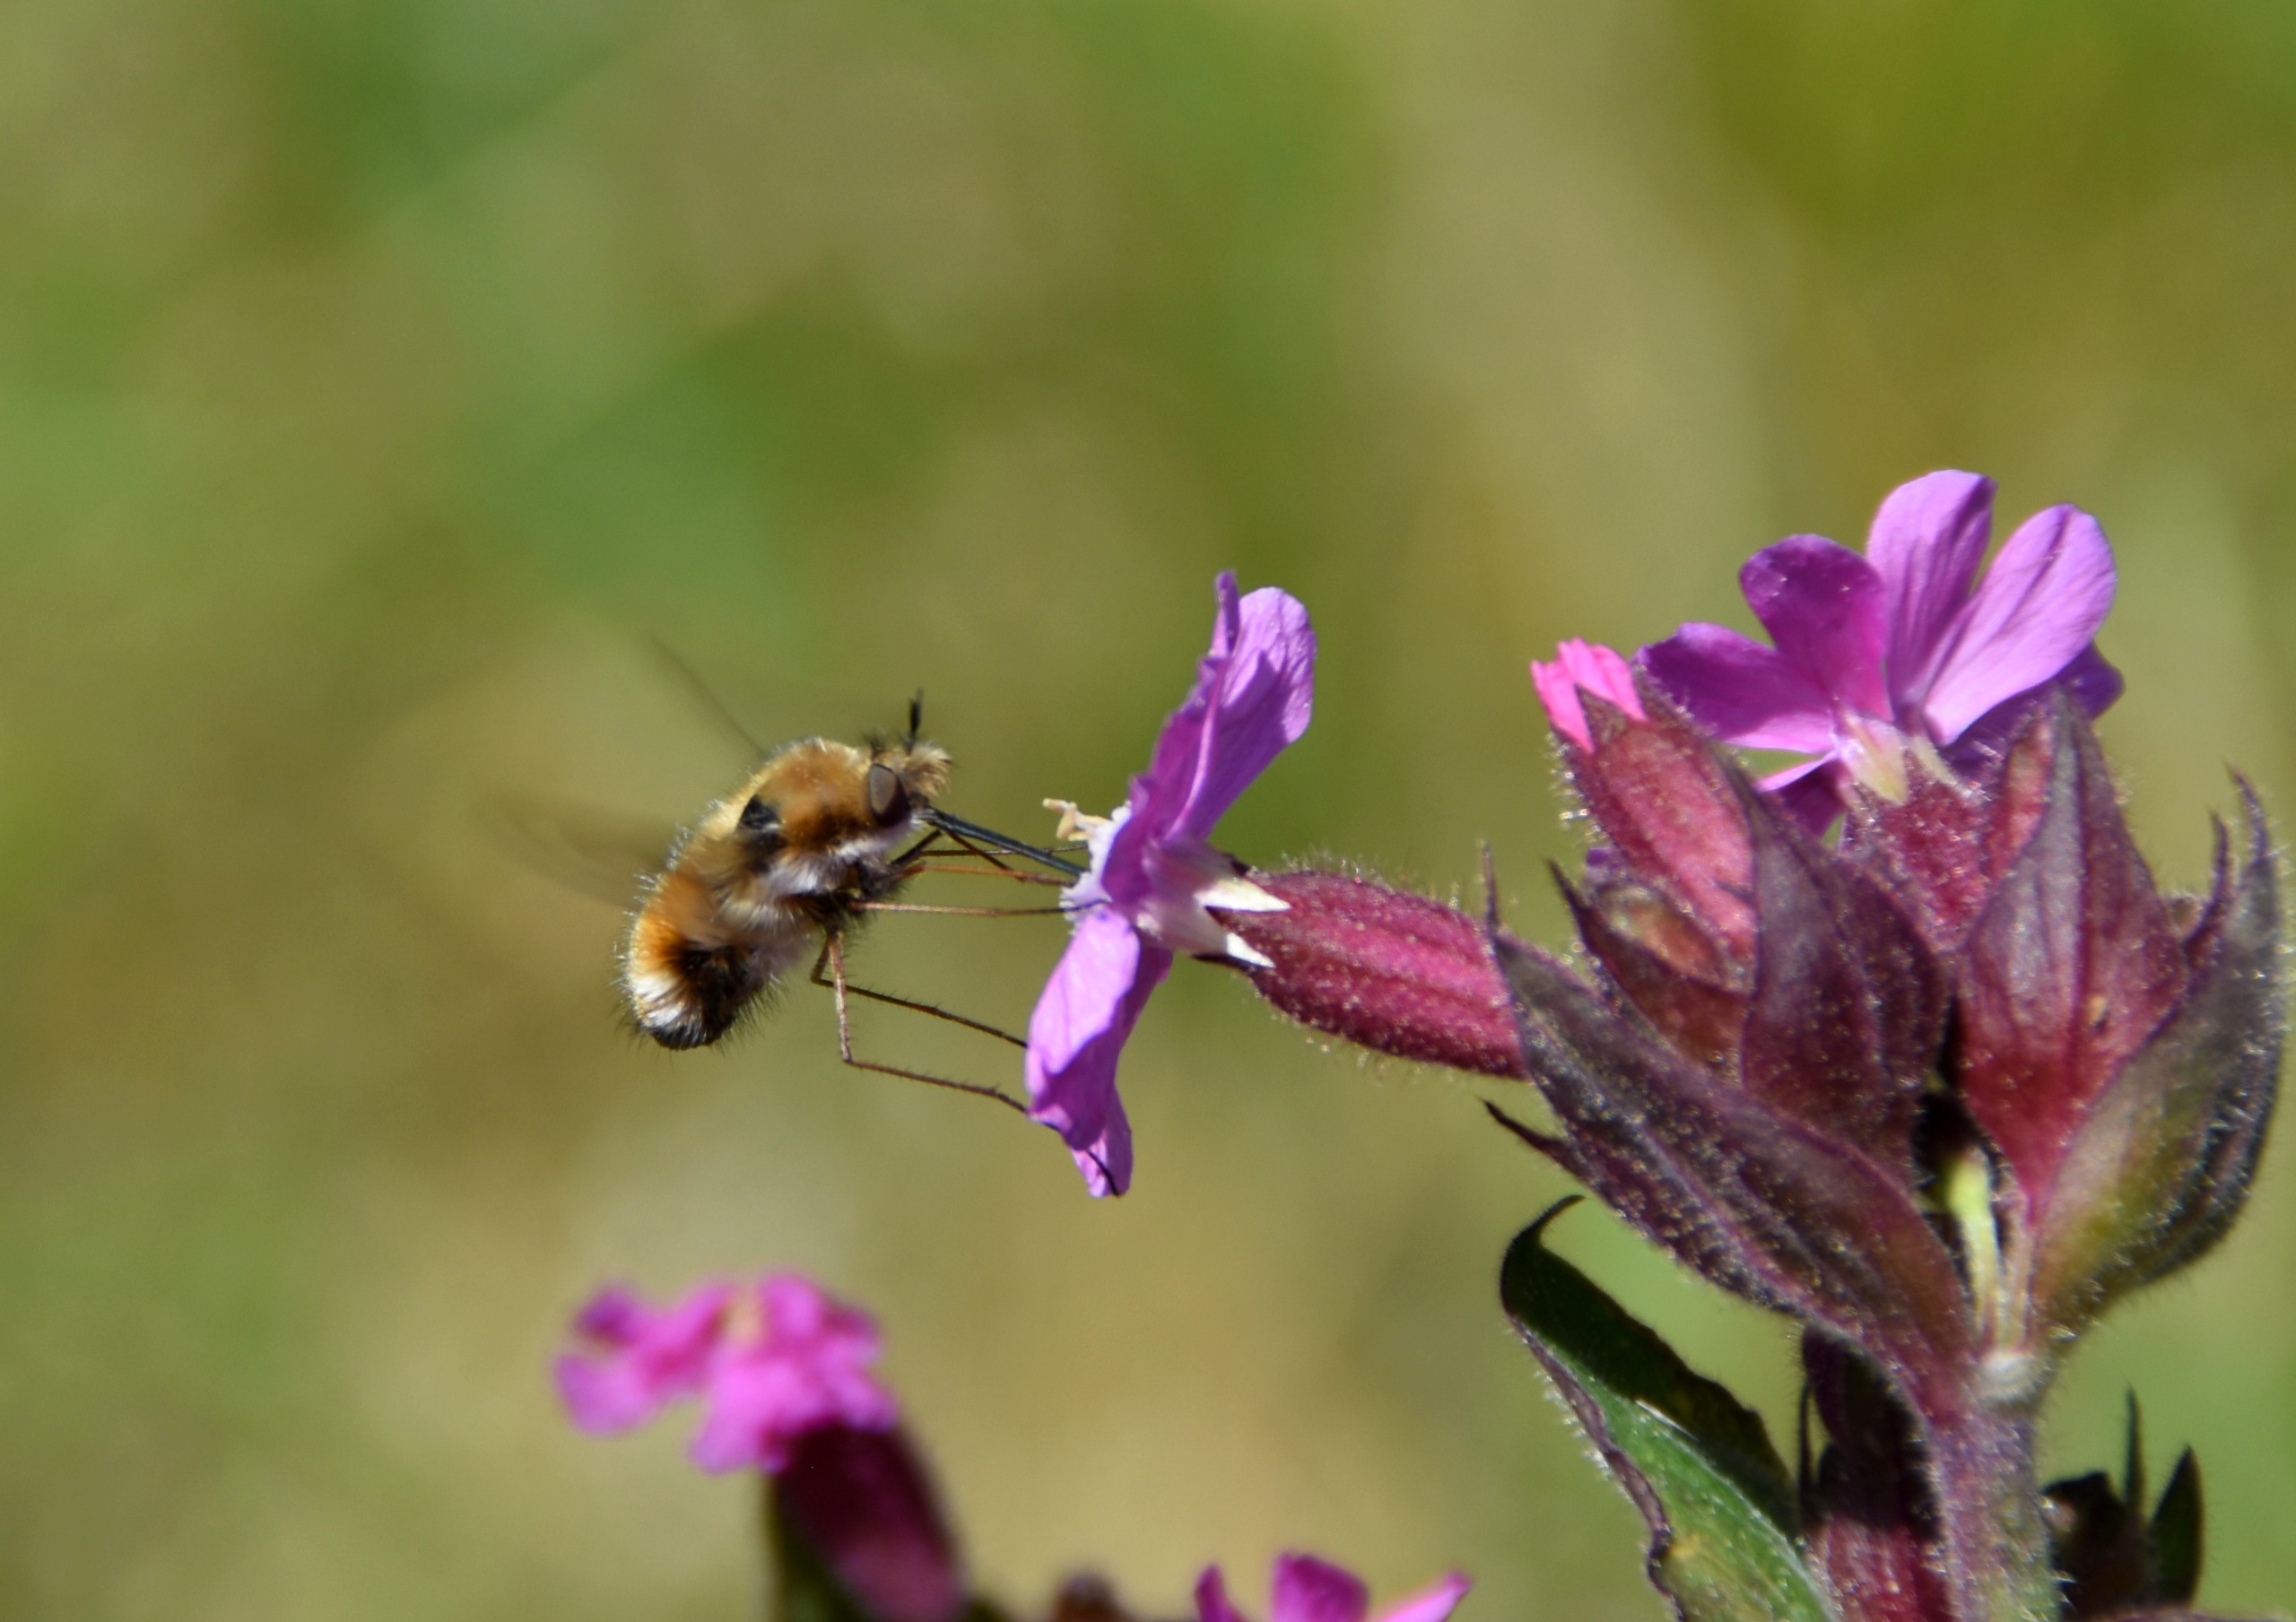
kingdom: Animalia
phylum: Arthropoda
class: Insecta
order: Diptera
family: Bombyliidae
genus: Bombylius
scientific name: Bombylius major
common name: Stor humleflue
